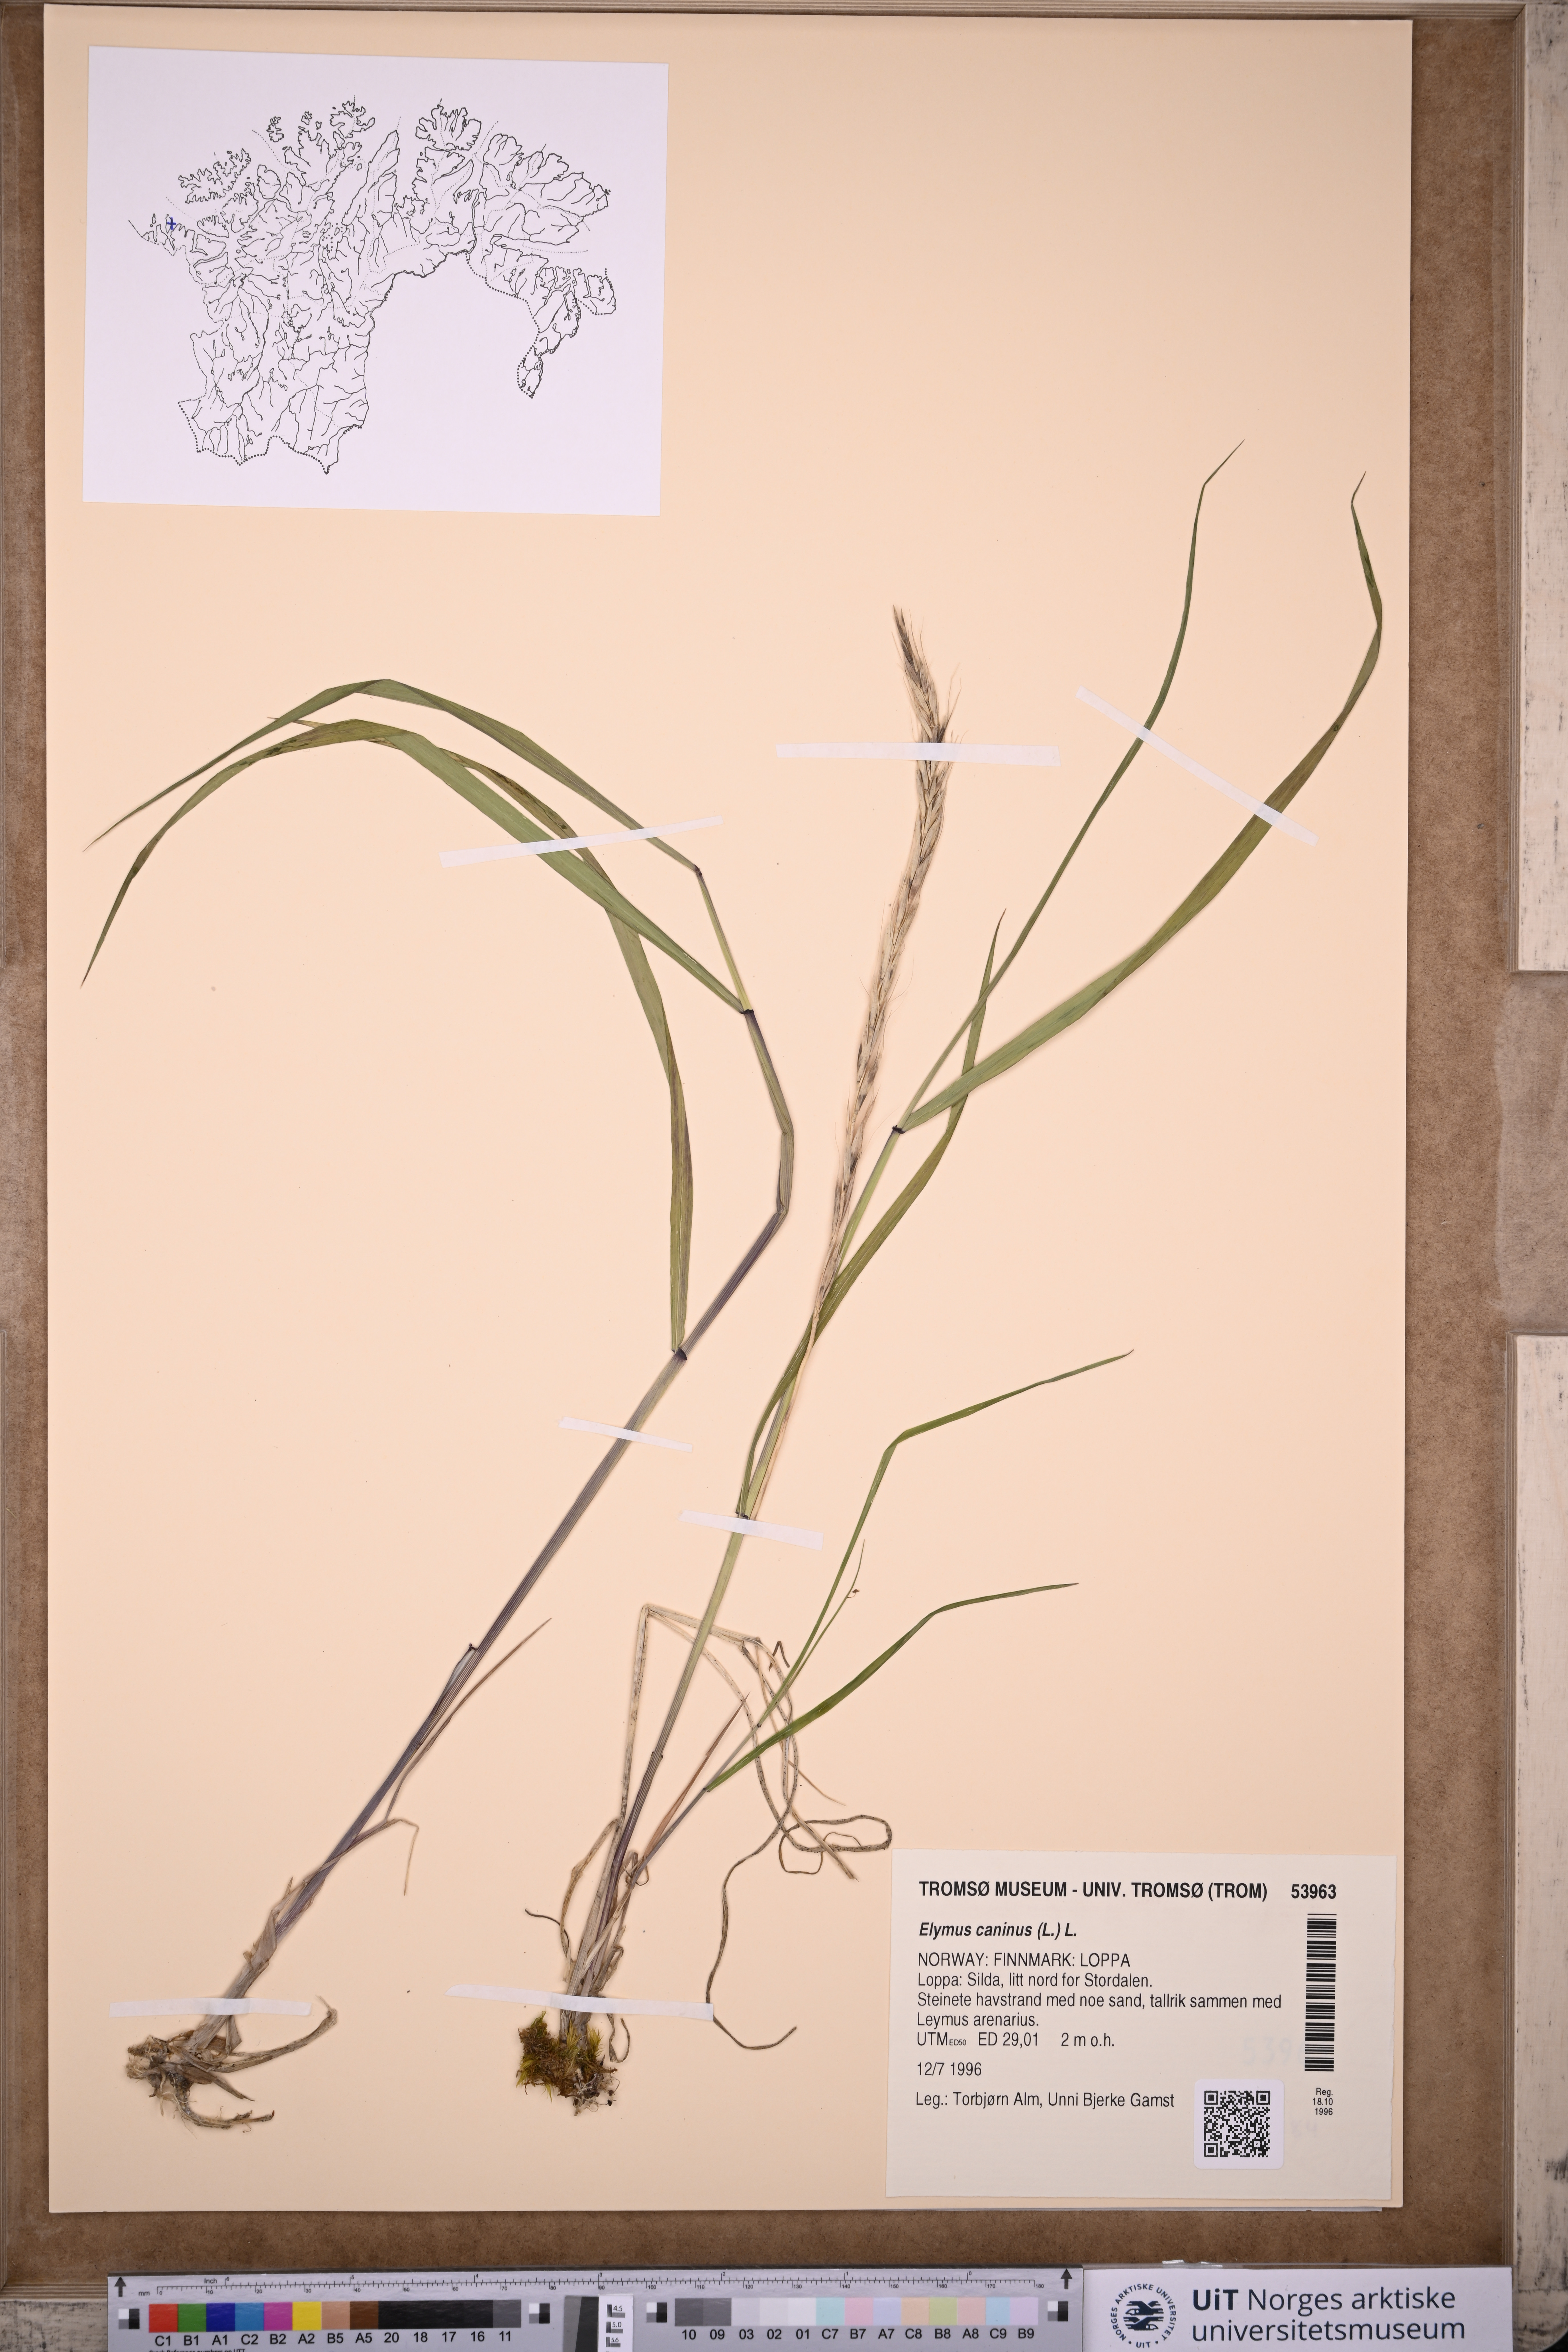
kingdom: Plantae
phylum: Tracheophyta
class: Liliopsida
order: Poales
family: Poaceae
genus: Elymus
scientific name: Elymus caninus
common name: Bearded couch
